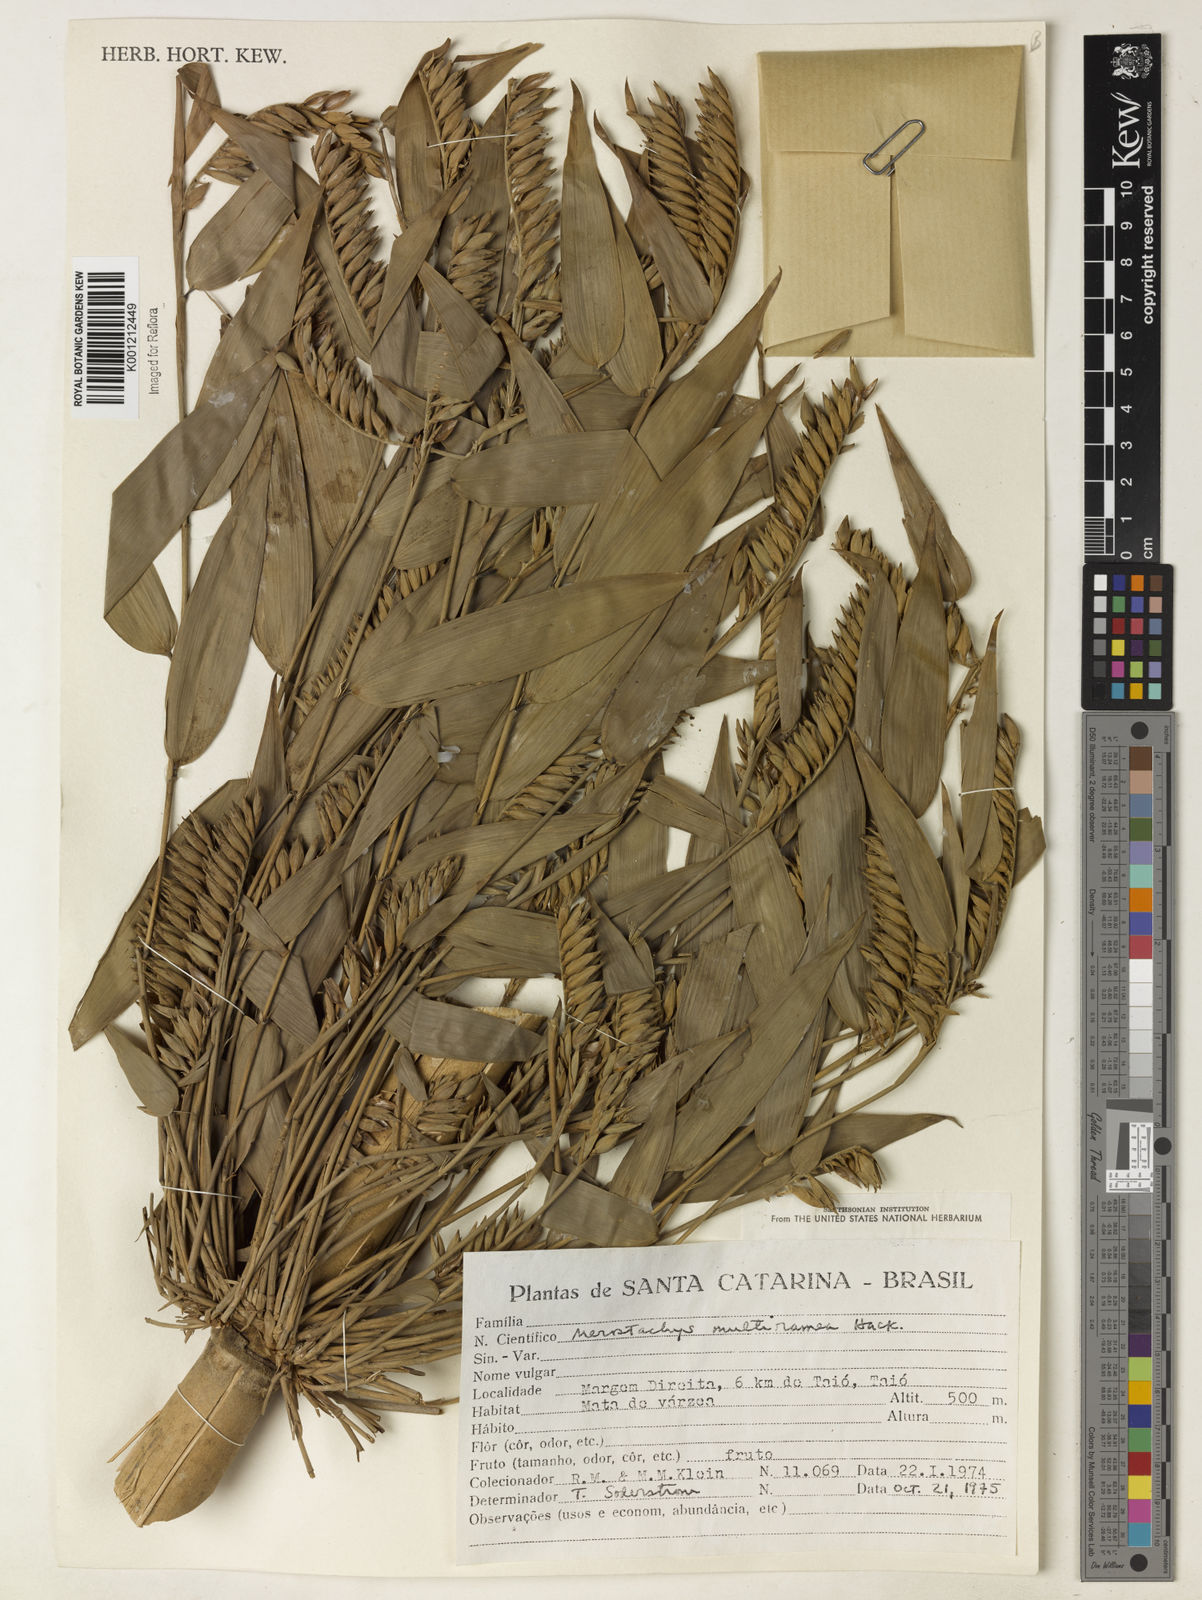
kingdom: Plantae
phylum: Tracheophyta
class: Liliopsida
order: Poales
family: Poaceae
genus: Merostachys
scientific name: Merostachys multiramea
